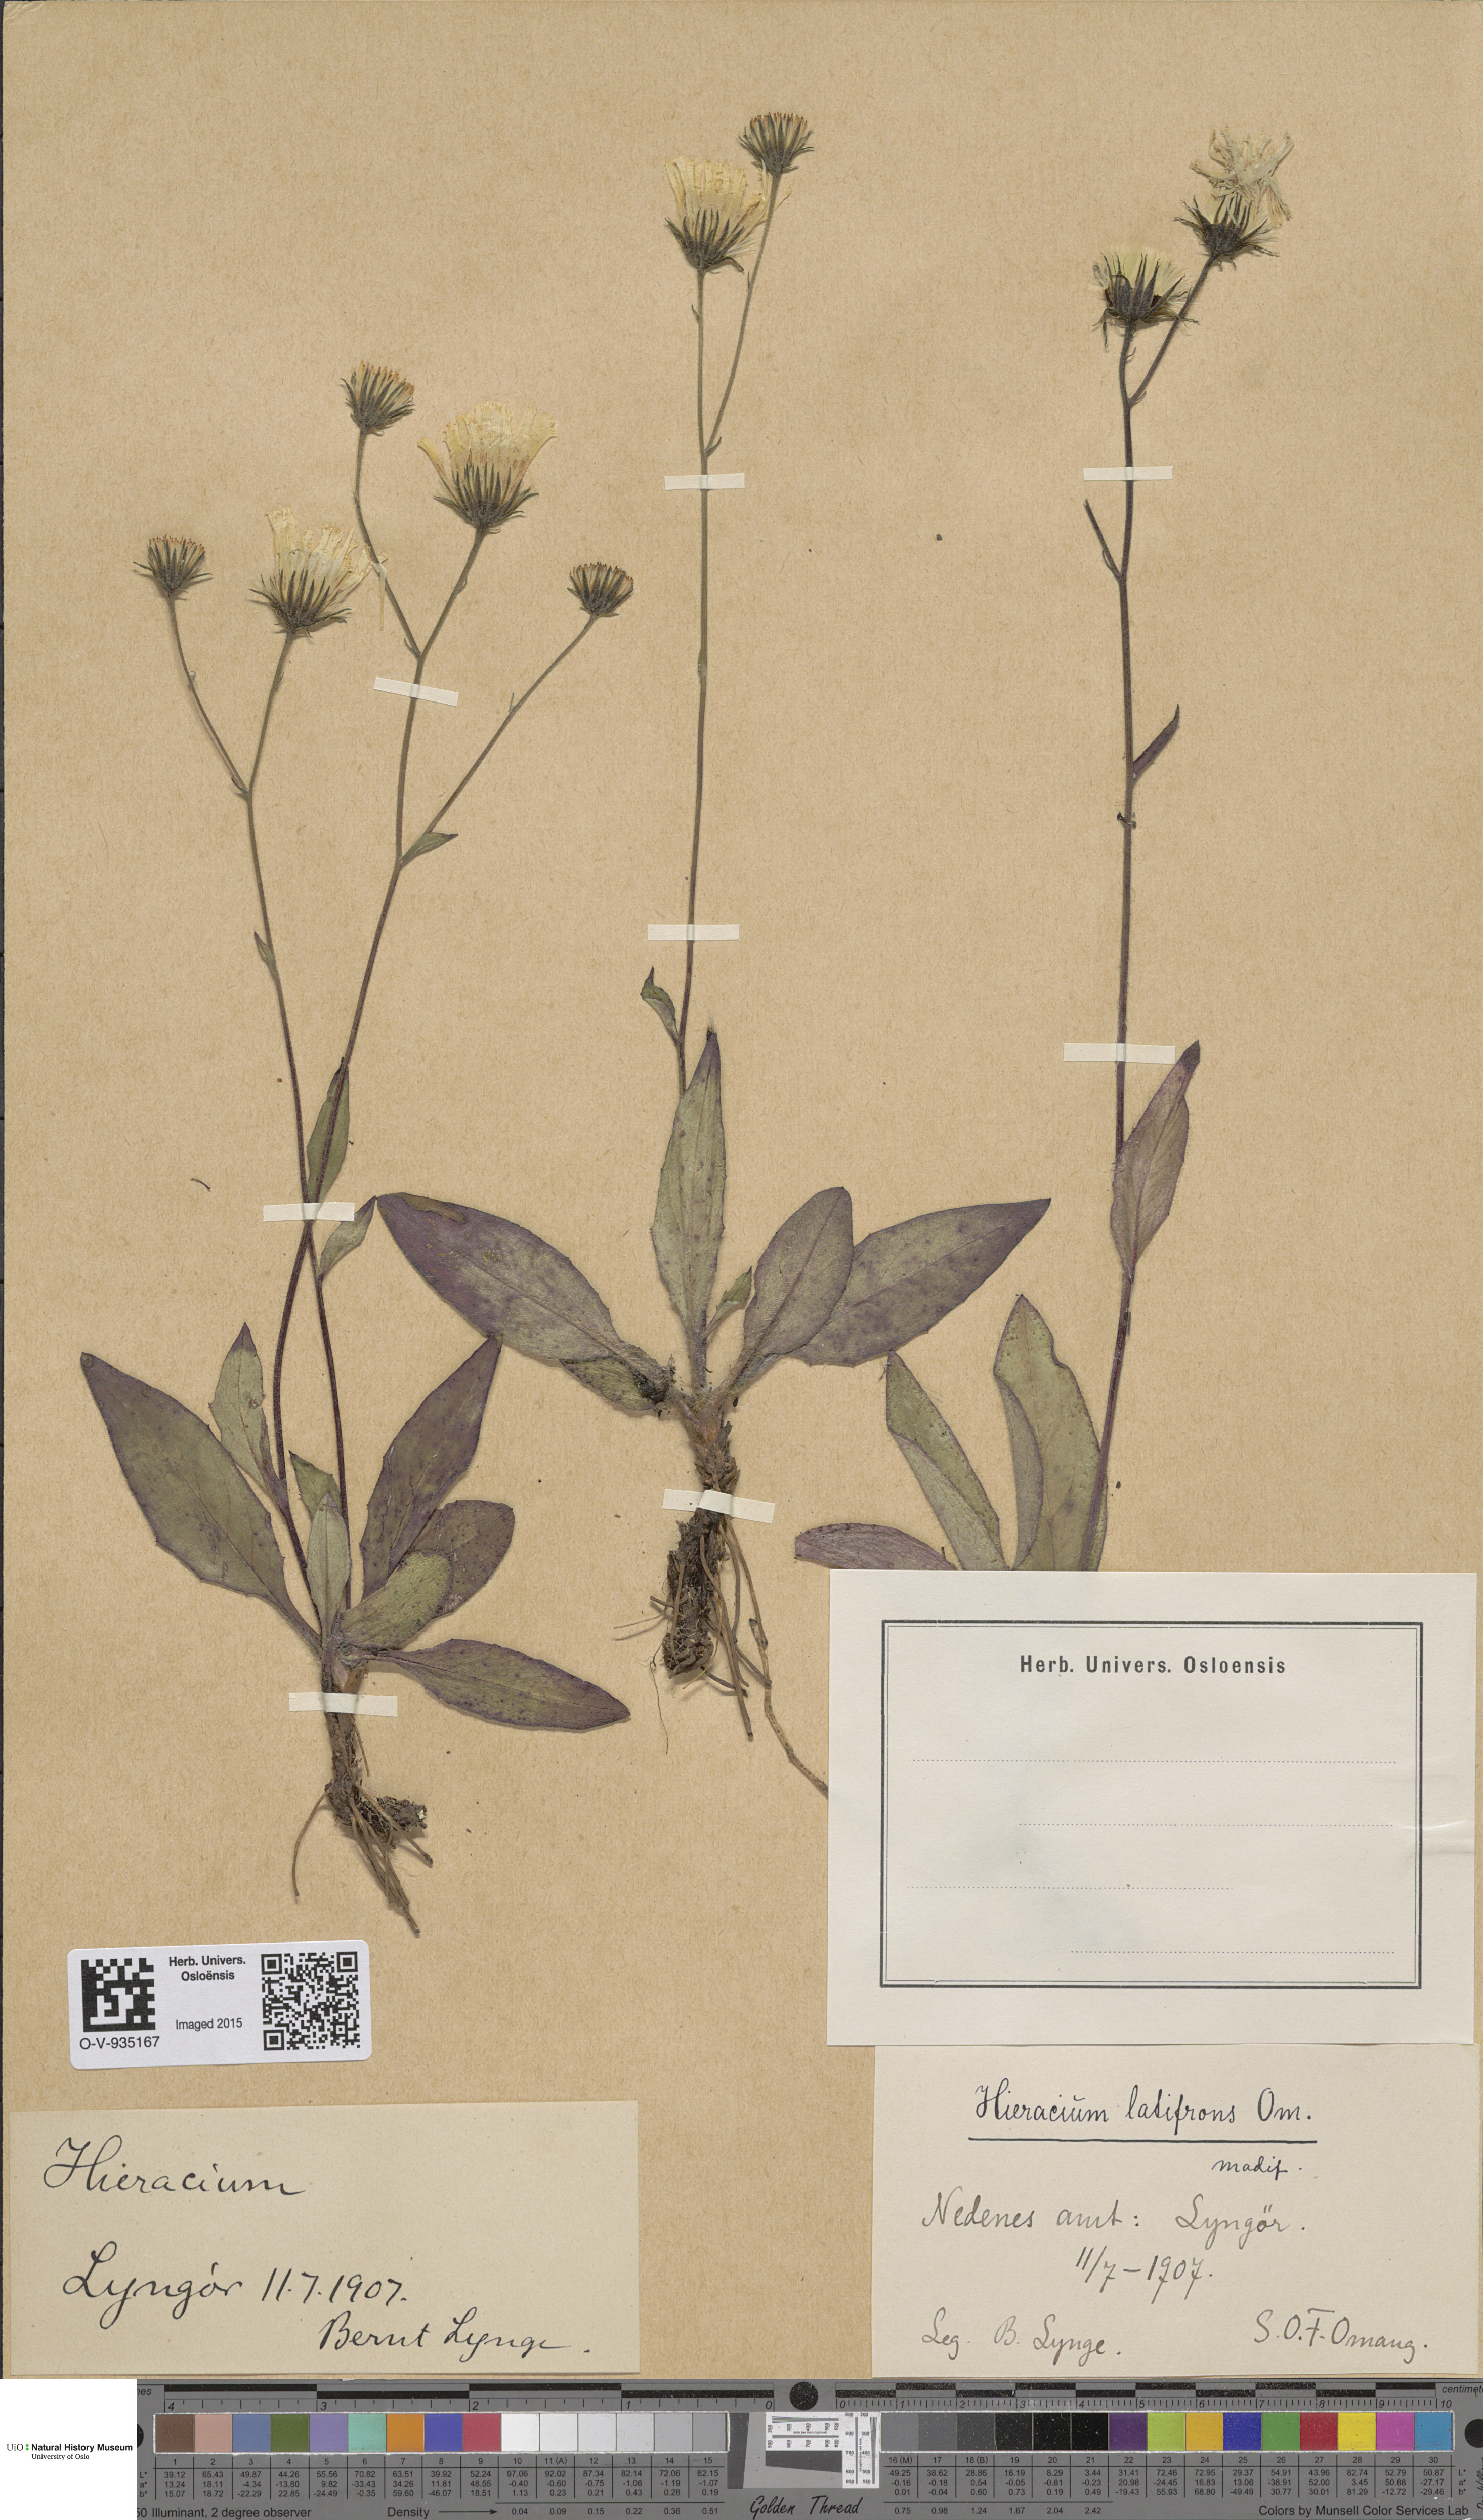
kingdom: Plantae
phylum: Tracheophyta
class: Magnoliopsida
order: Asterales
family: Asteraceae
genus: Hieracium
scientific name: Hieracium saxifragum
